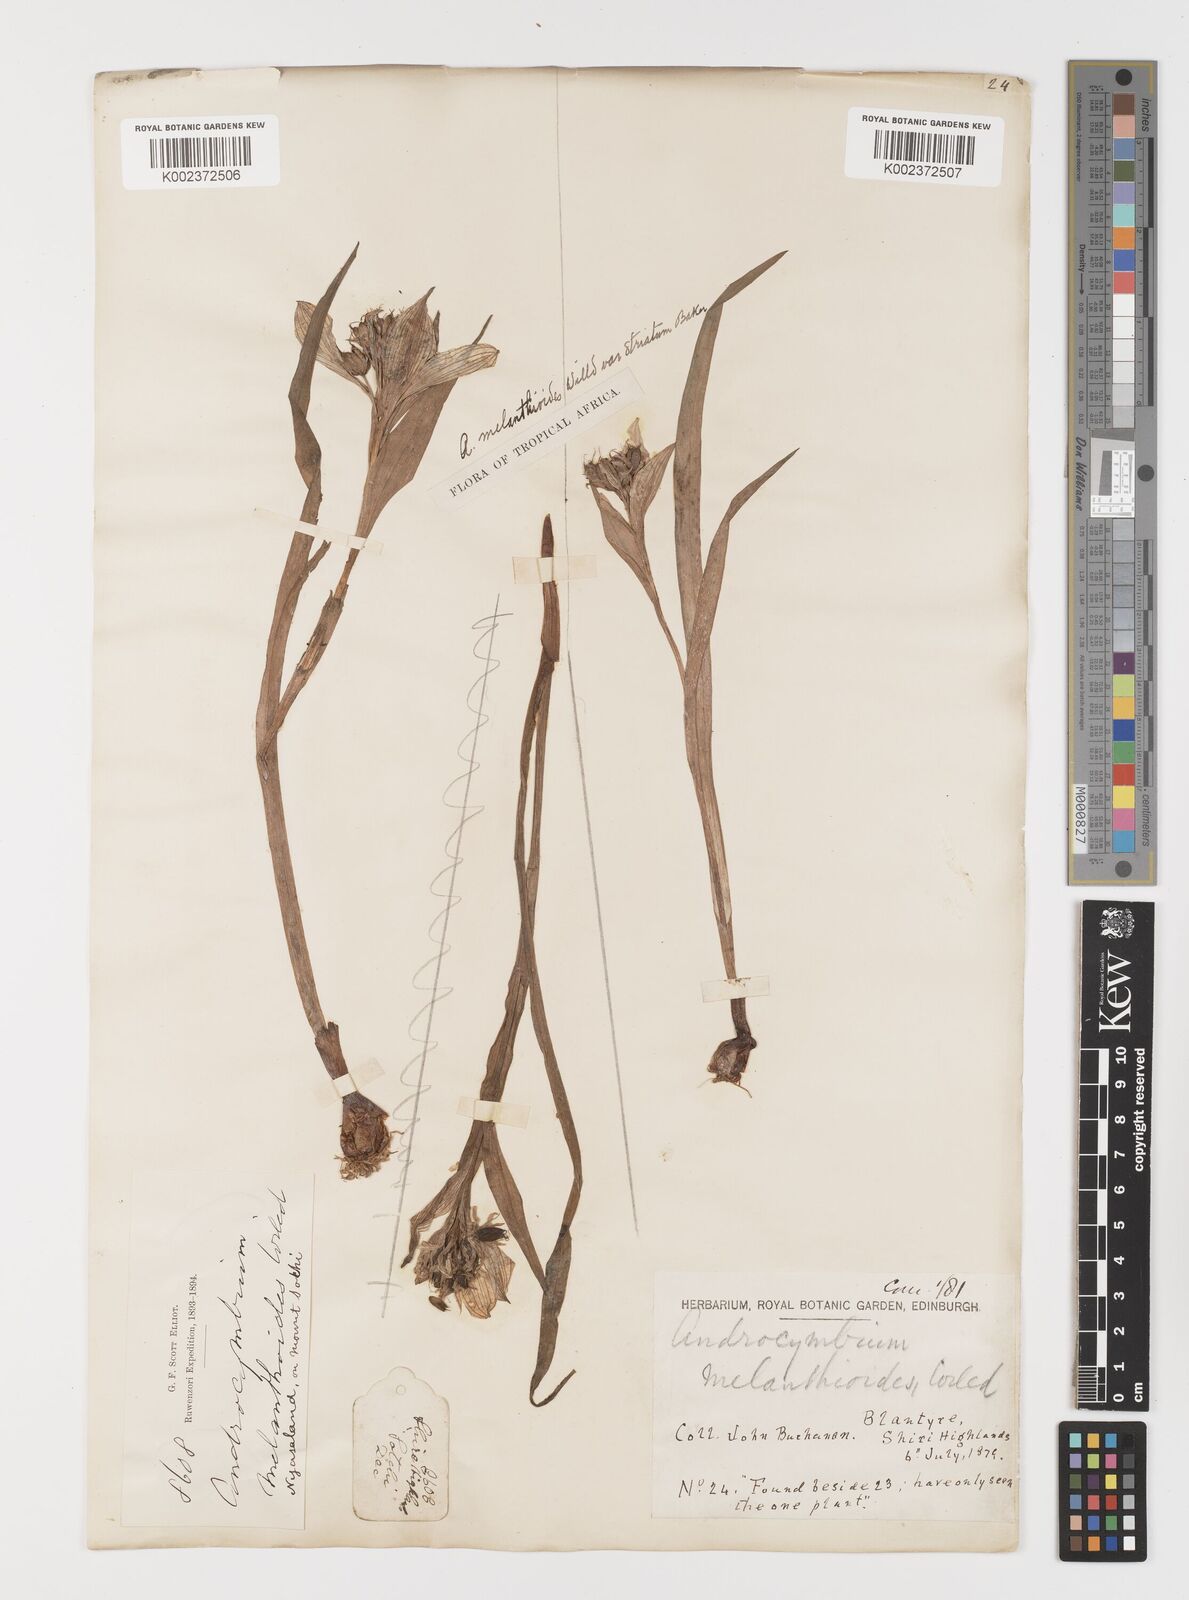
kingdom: Plantae
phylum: Tracheophyta
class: Liliopsida
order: Liliales
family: Colchicaceae
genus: Colchicum
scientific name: Colchicum melanthioides
